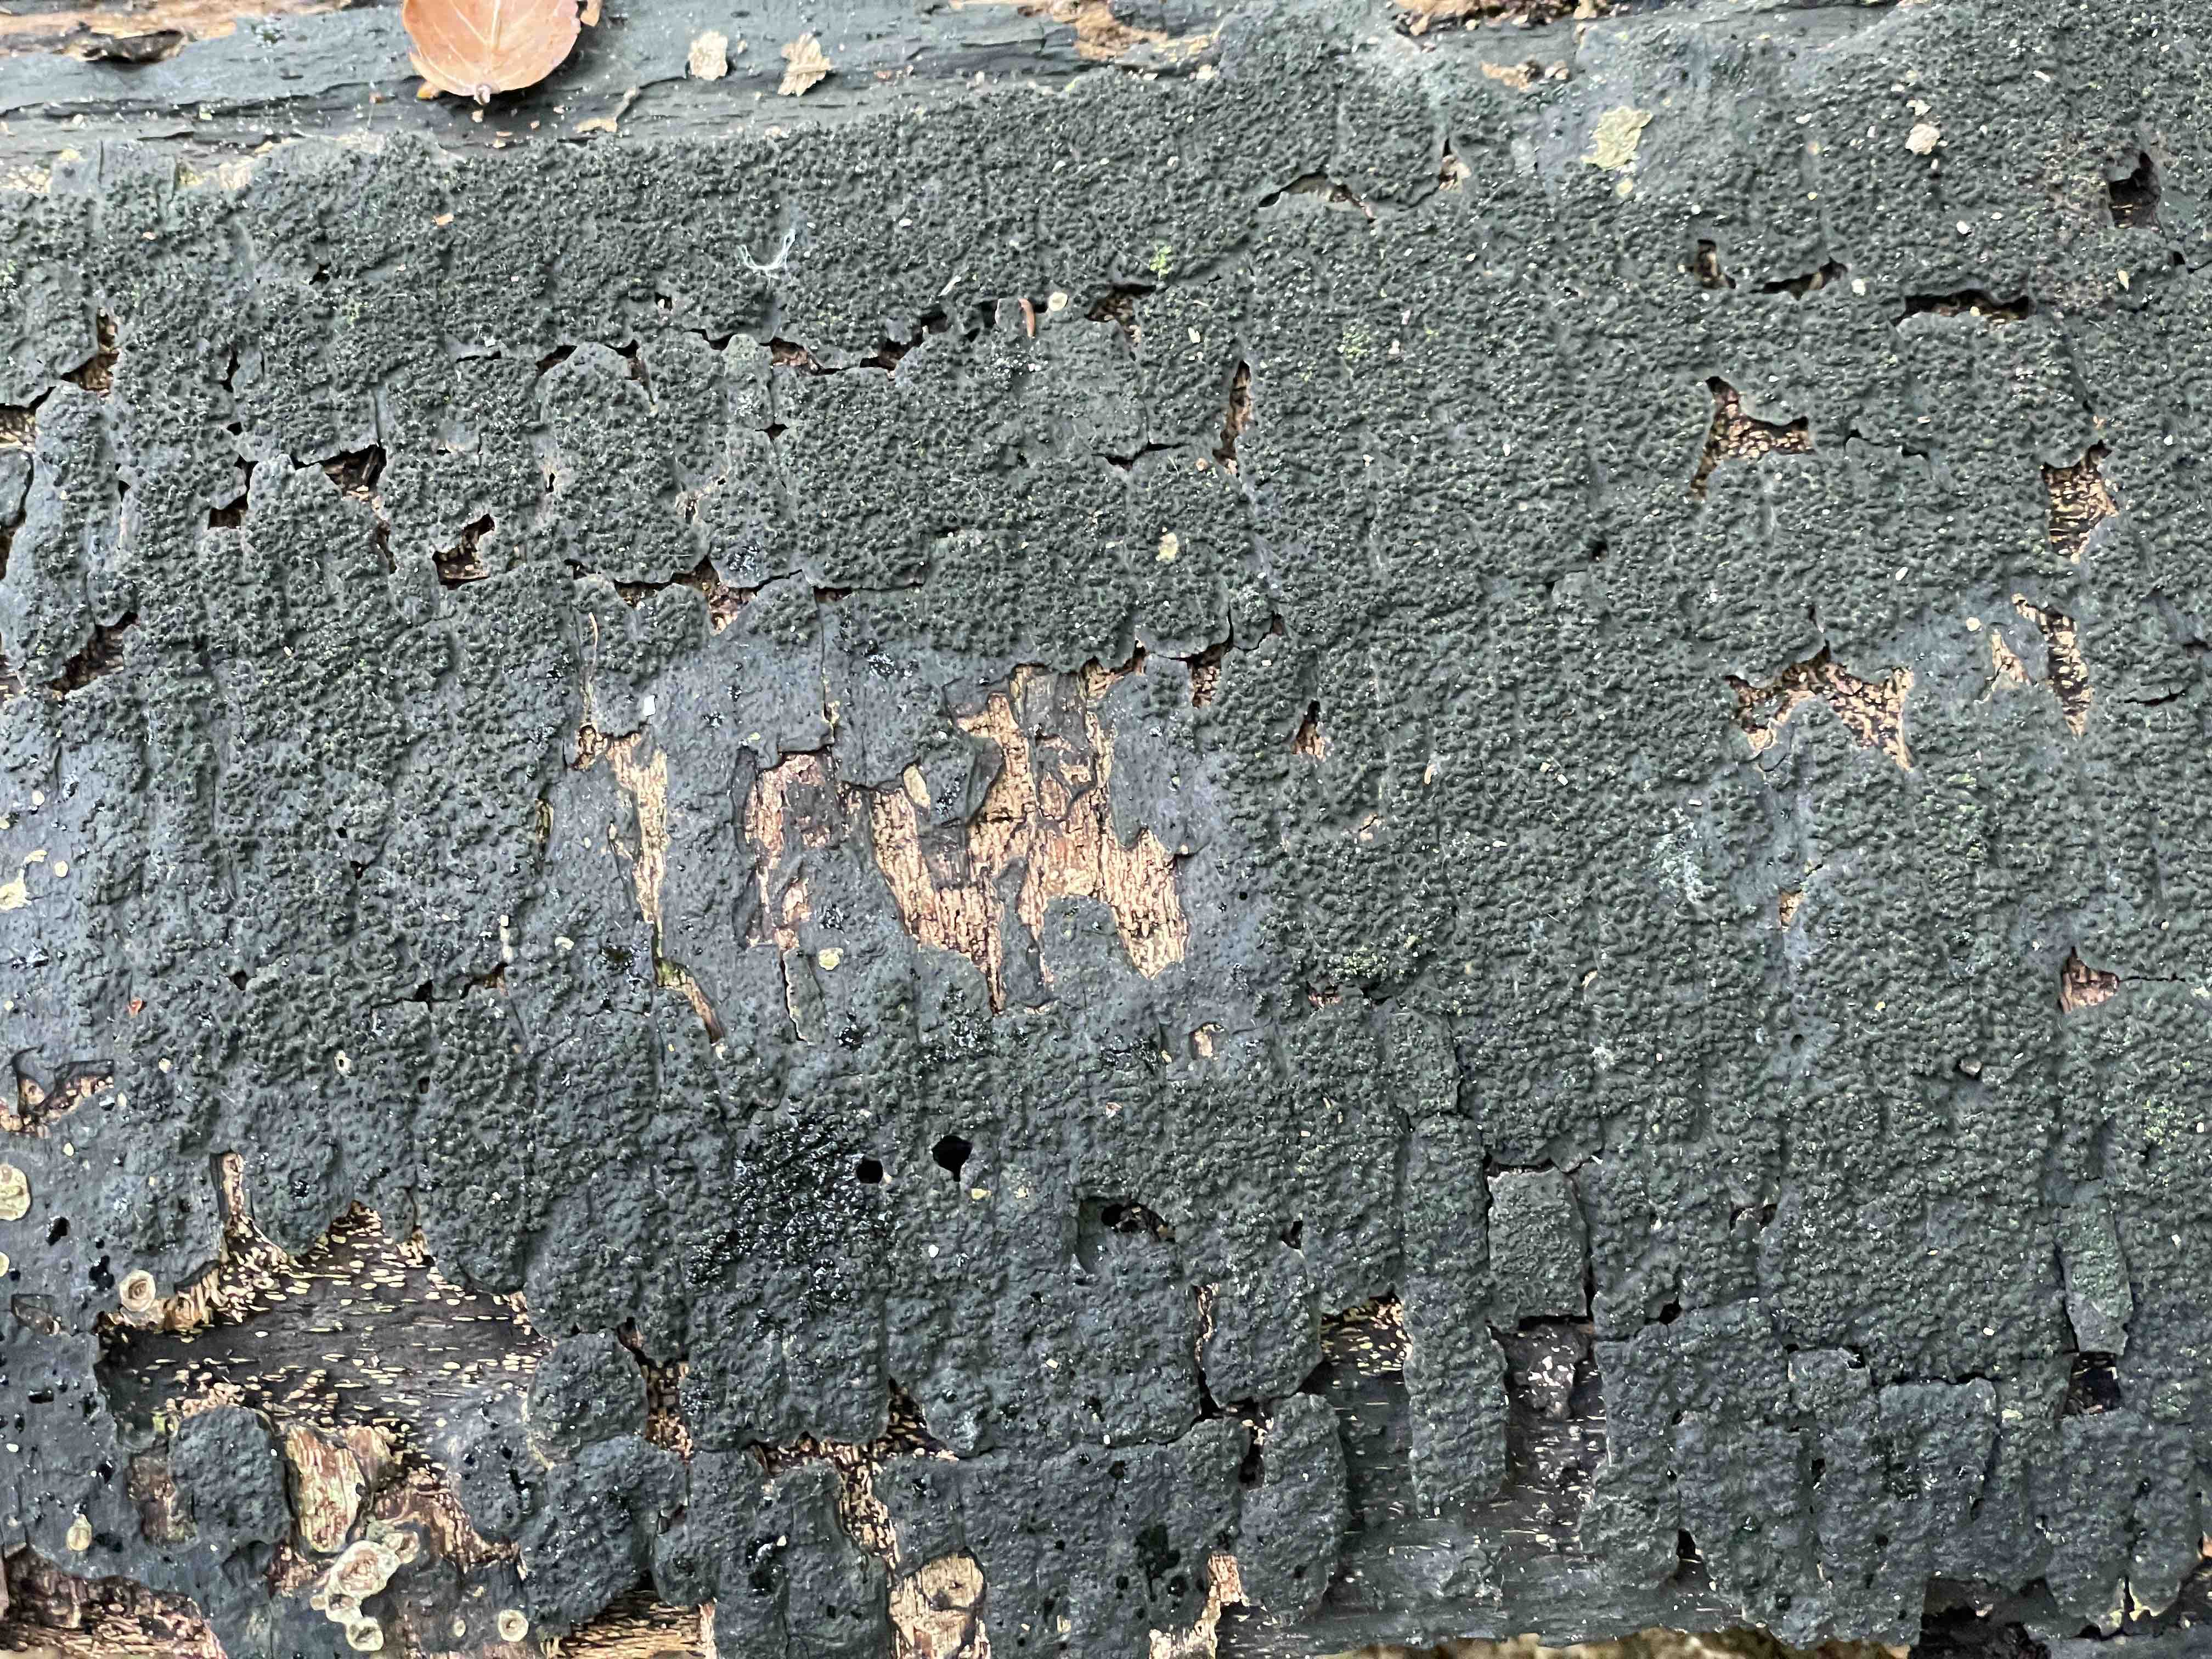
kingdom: Fungi
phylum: Ascomycota
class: Sordariomycetes
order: Xylariales
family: Diatrypaceae
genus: Eutypa
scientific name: Eutypa spinosa
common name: grov kulskorpe
